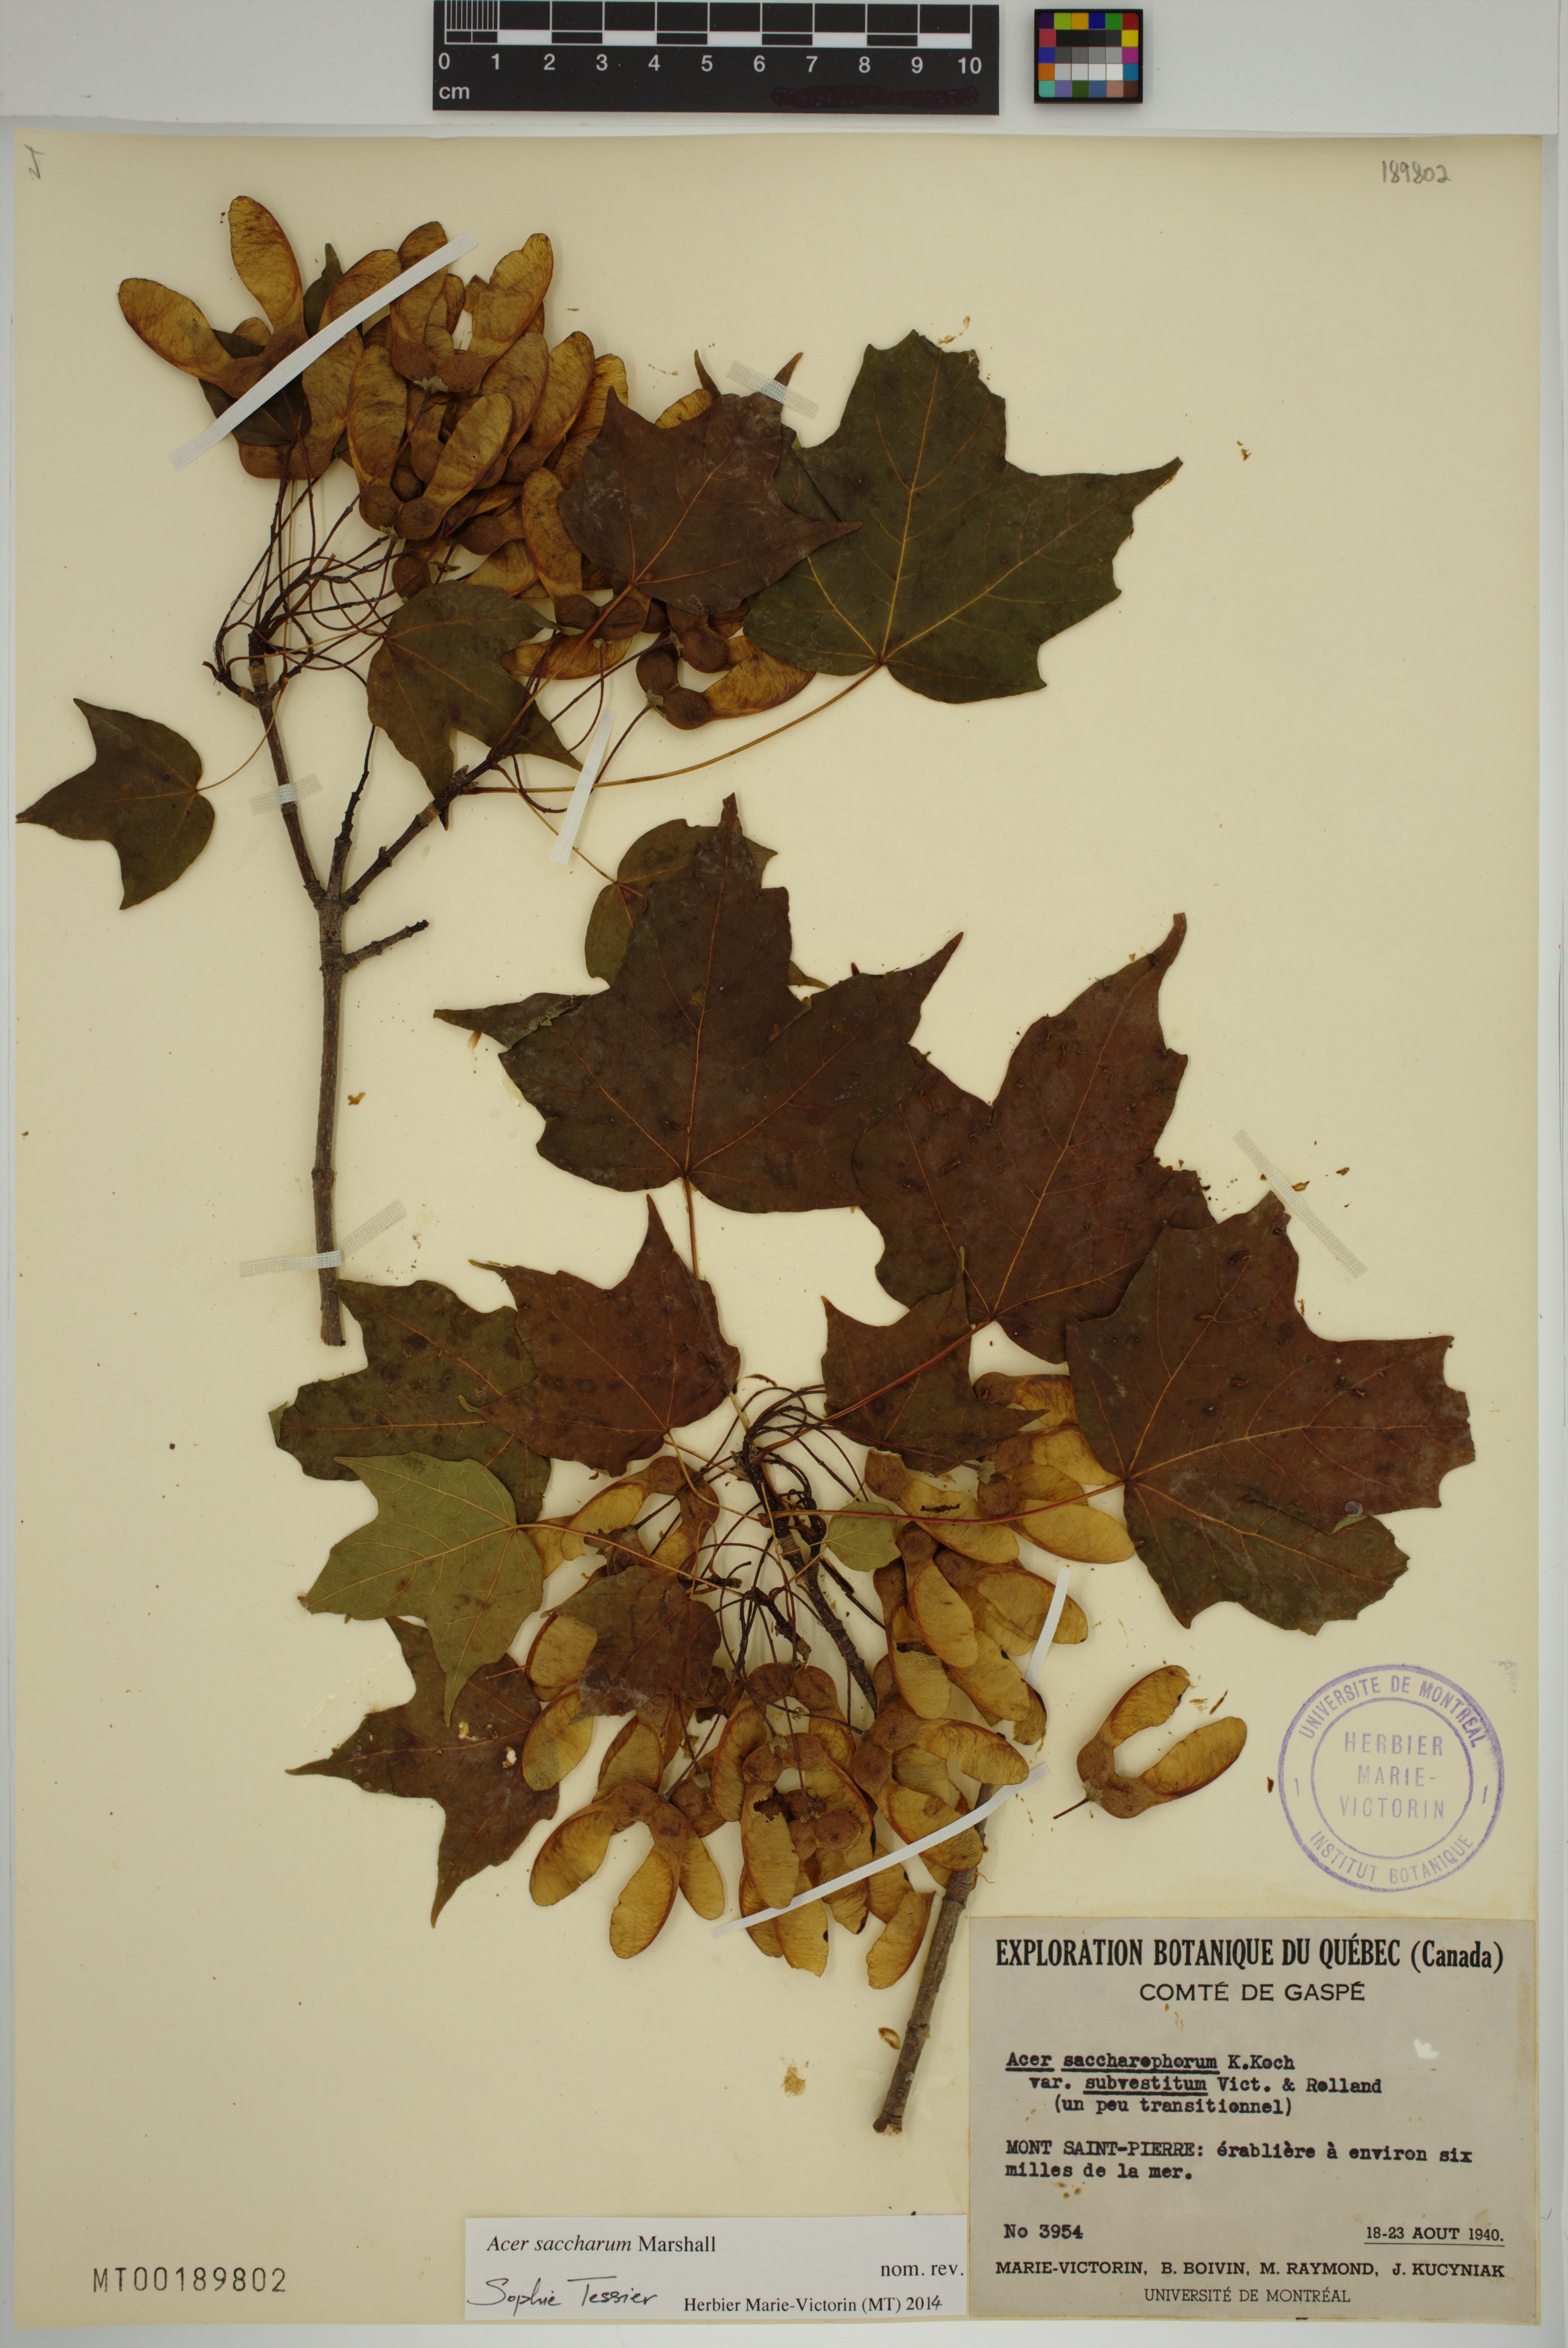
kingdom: Plantae
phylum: Tracheophyta
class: Magnoliopsida
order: Sapindales
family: Sapindaceae
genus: Acer
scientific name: Acer saccharum
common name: Sugar maple
